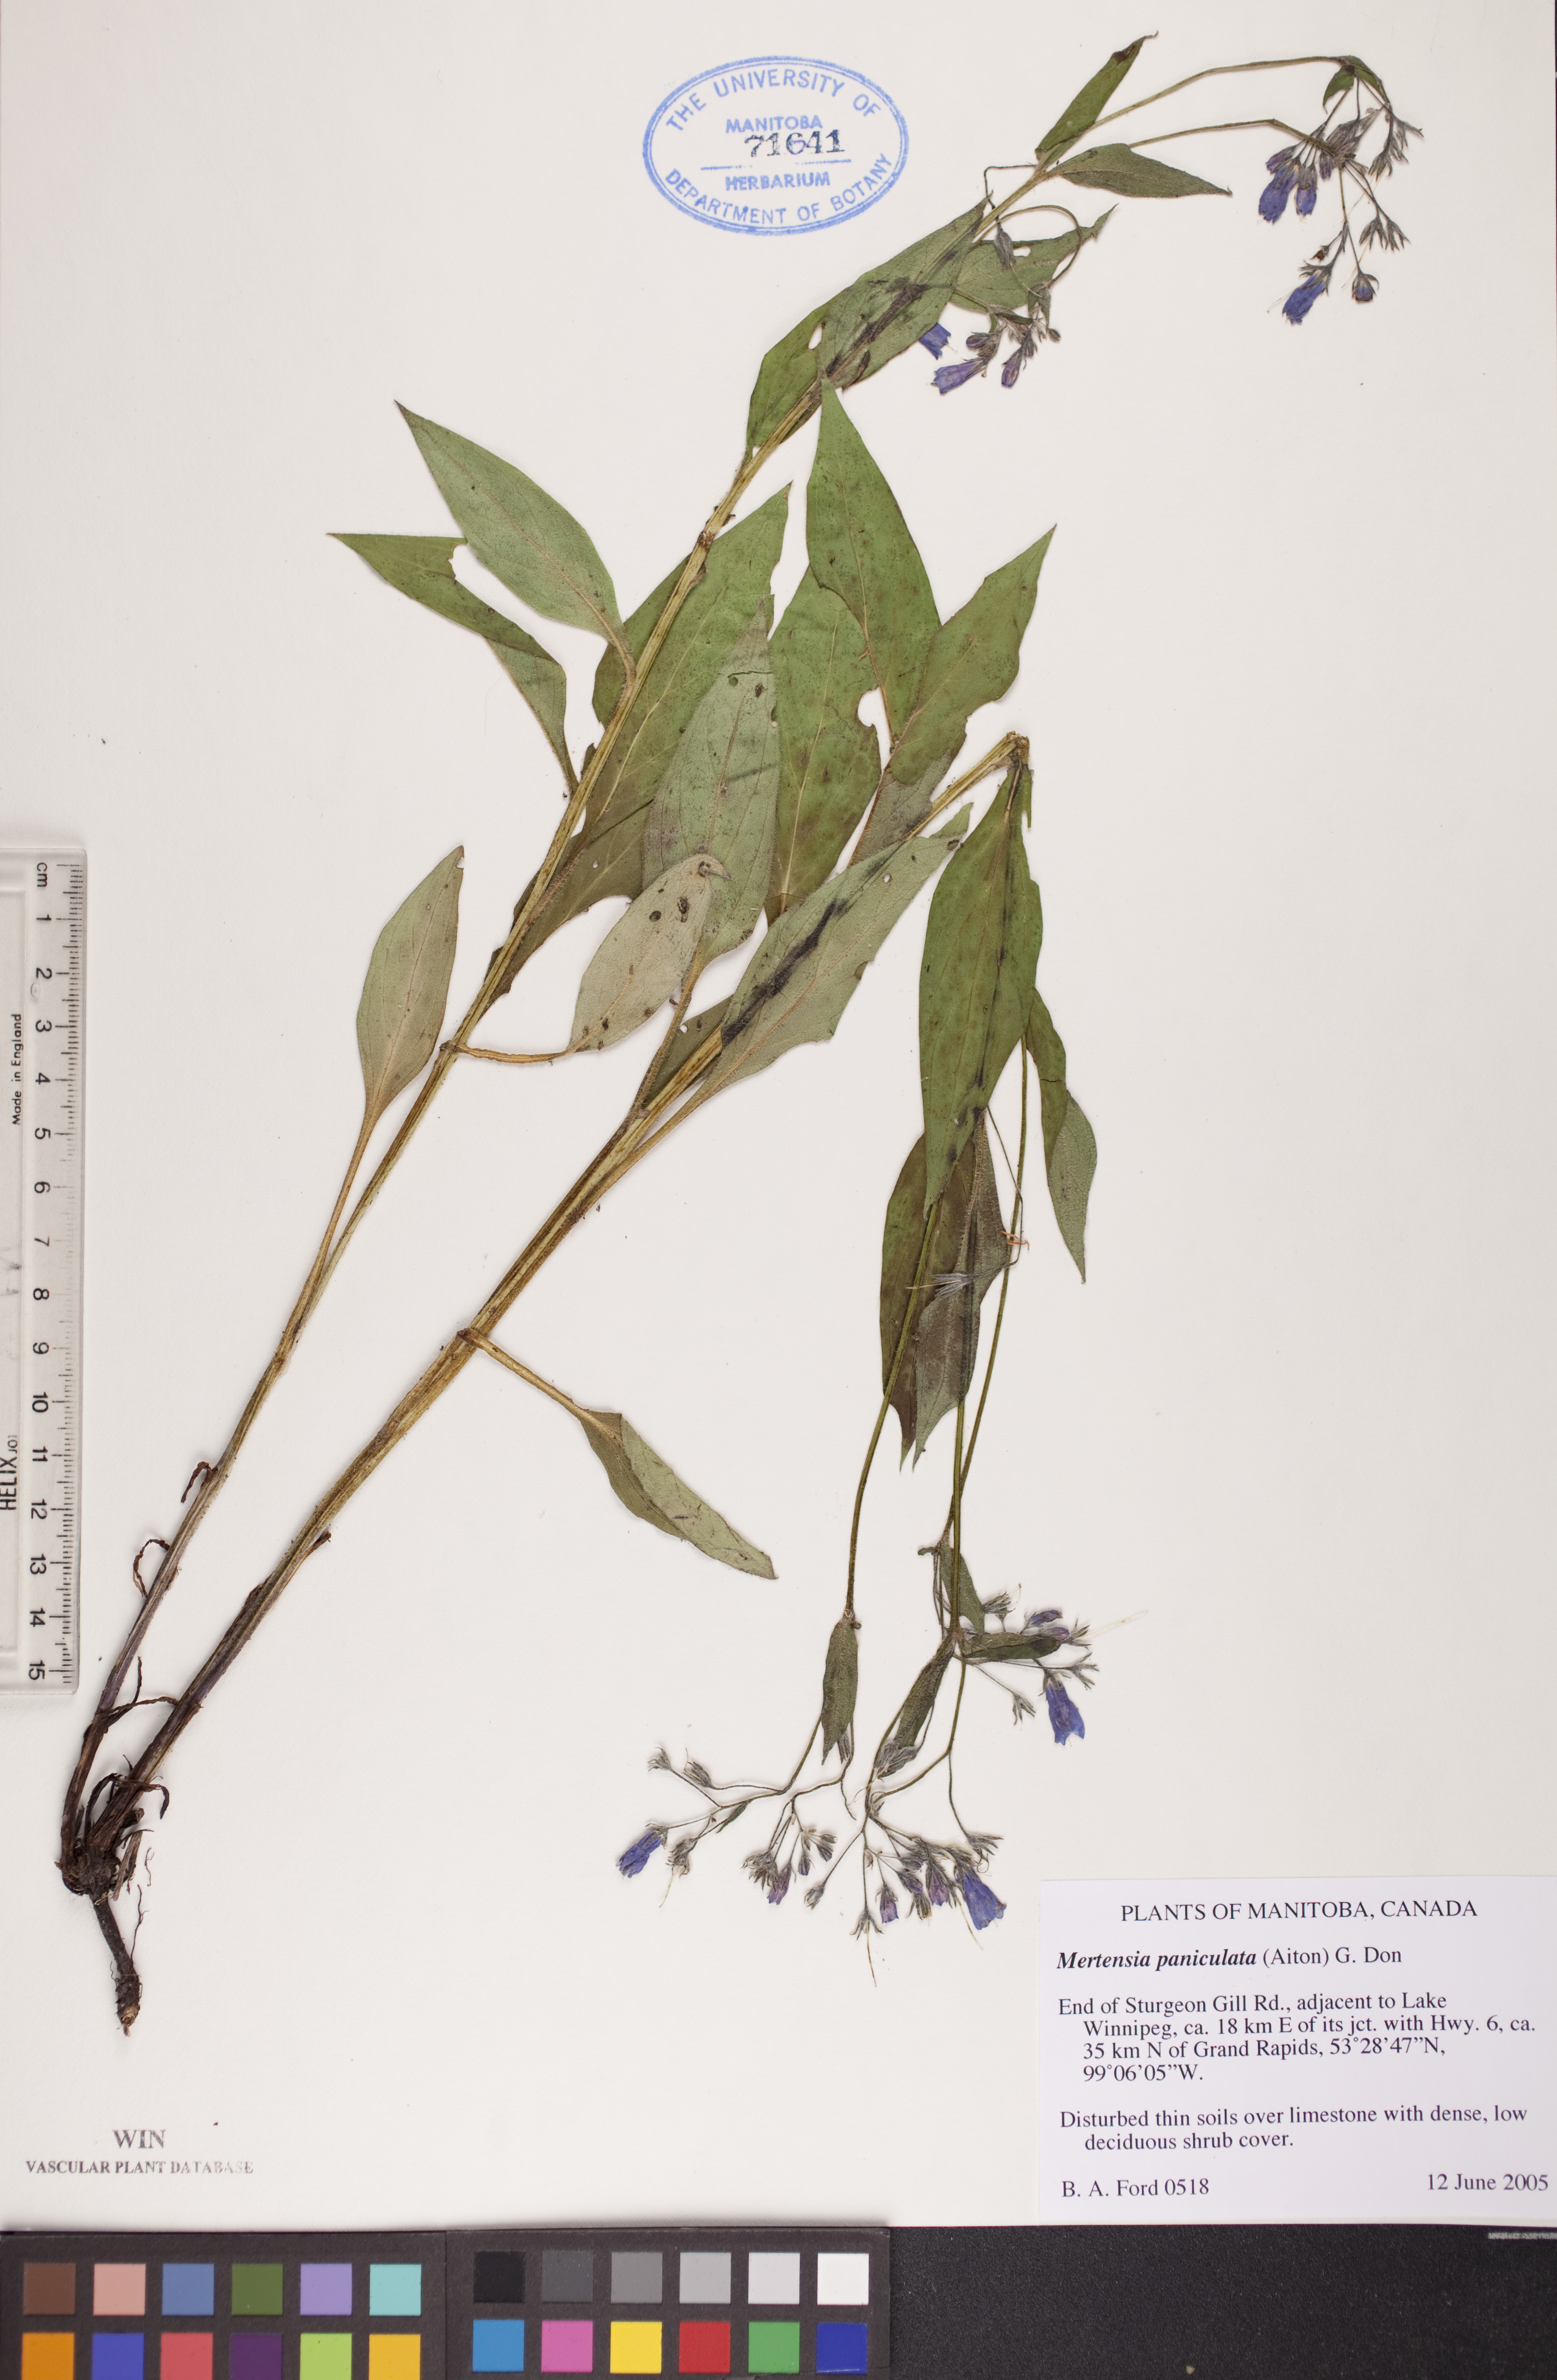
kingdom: Plantae
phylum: Tracheophyta
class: Magnoliopsida
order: Boraginales
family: Boraginaceae
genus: Mertensia
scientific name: Mertensia paniculata
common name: Panicled bluebells
